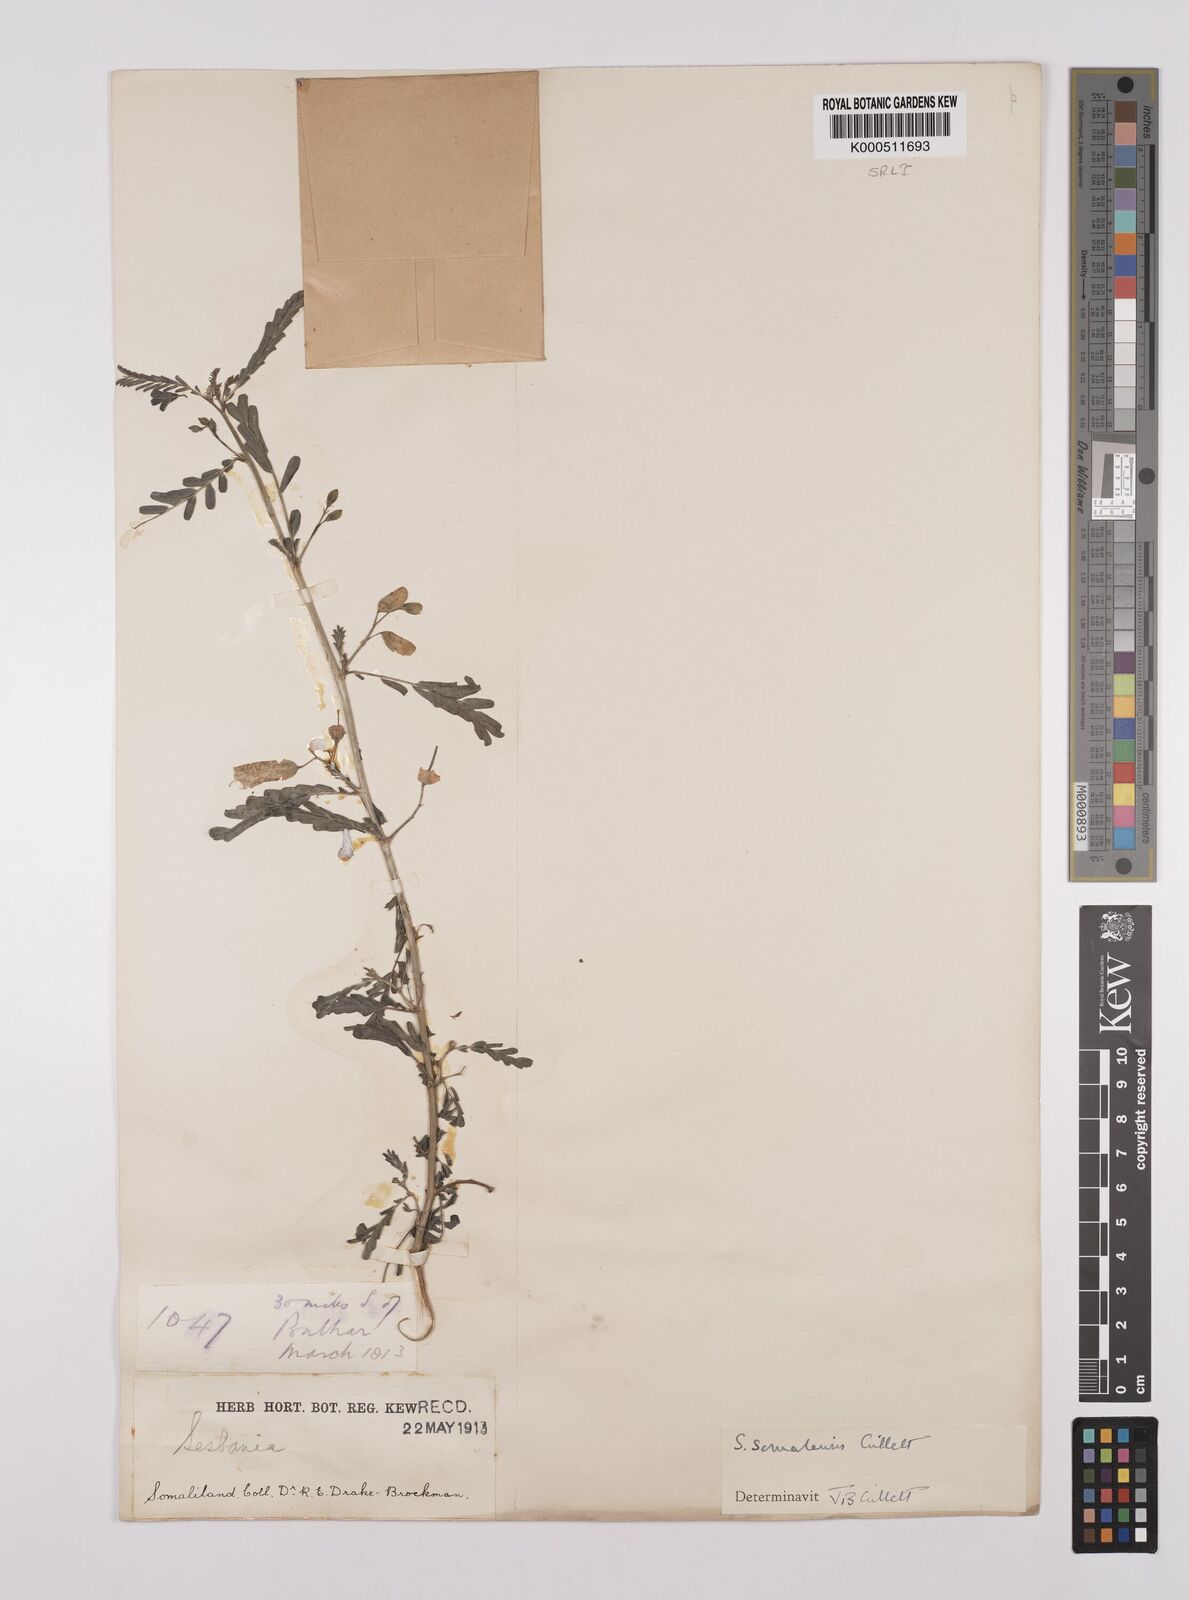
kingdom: Plantae
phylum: Tracheophyta
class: Magnoliopsida
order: Fabales
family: Fabaceae
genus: Sesbania
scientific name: Sesbania somalensis
